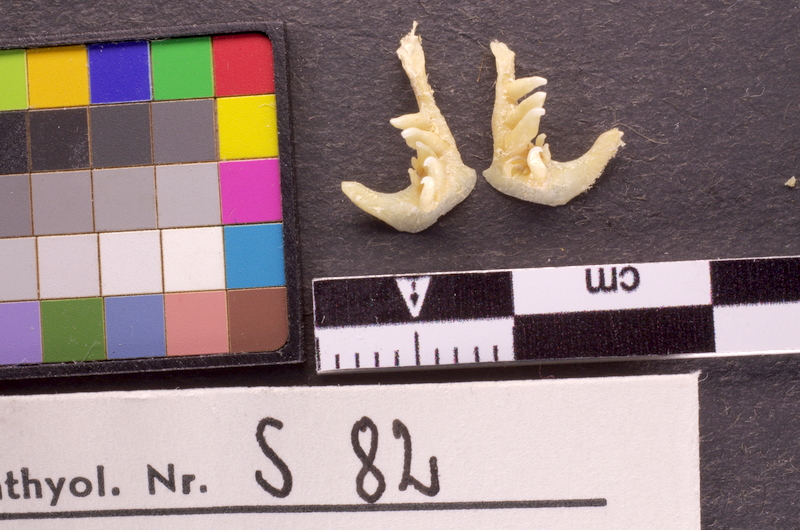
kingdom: Animalia
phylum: Chordata
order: Cypriniformes
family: Cyprinidae
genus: Telestes
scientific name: Telestes souffia
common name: Souffia
